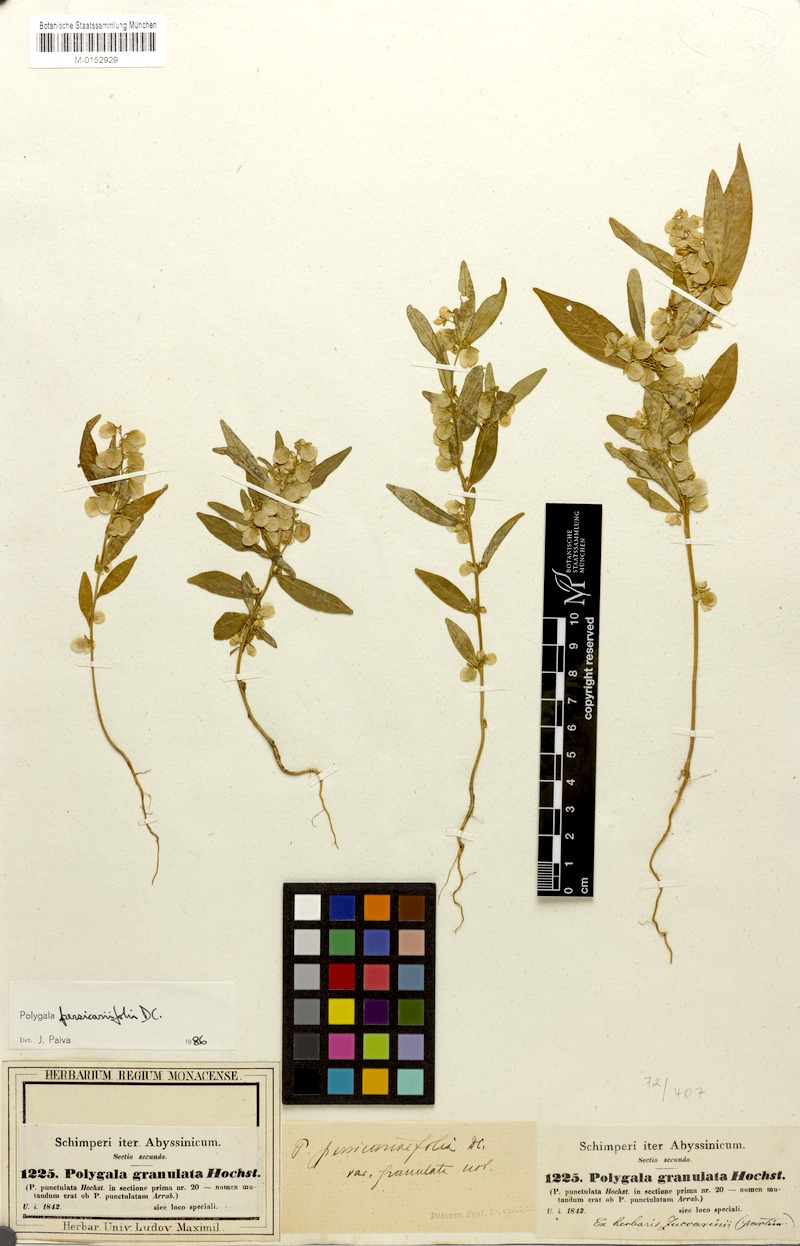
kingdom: Plantae
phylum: Tracheophyta
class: Magnoliopsida
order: Fabales
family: Polygalaceae
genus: Polygala
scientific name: Polygala persicariifolia
